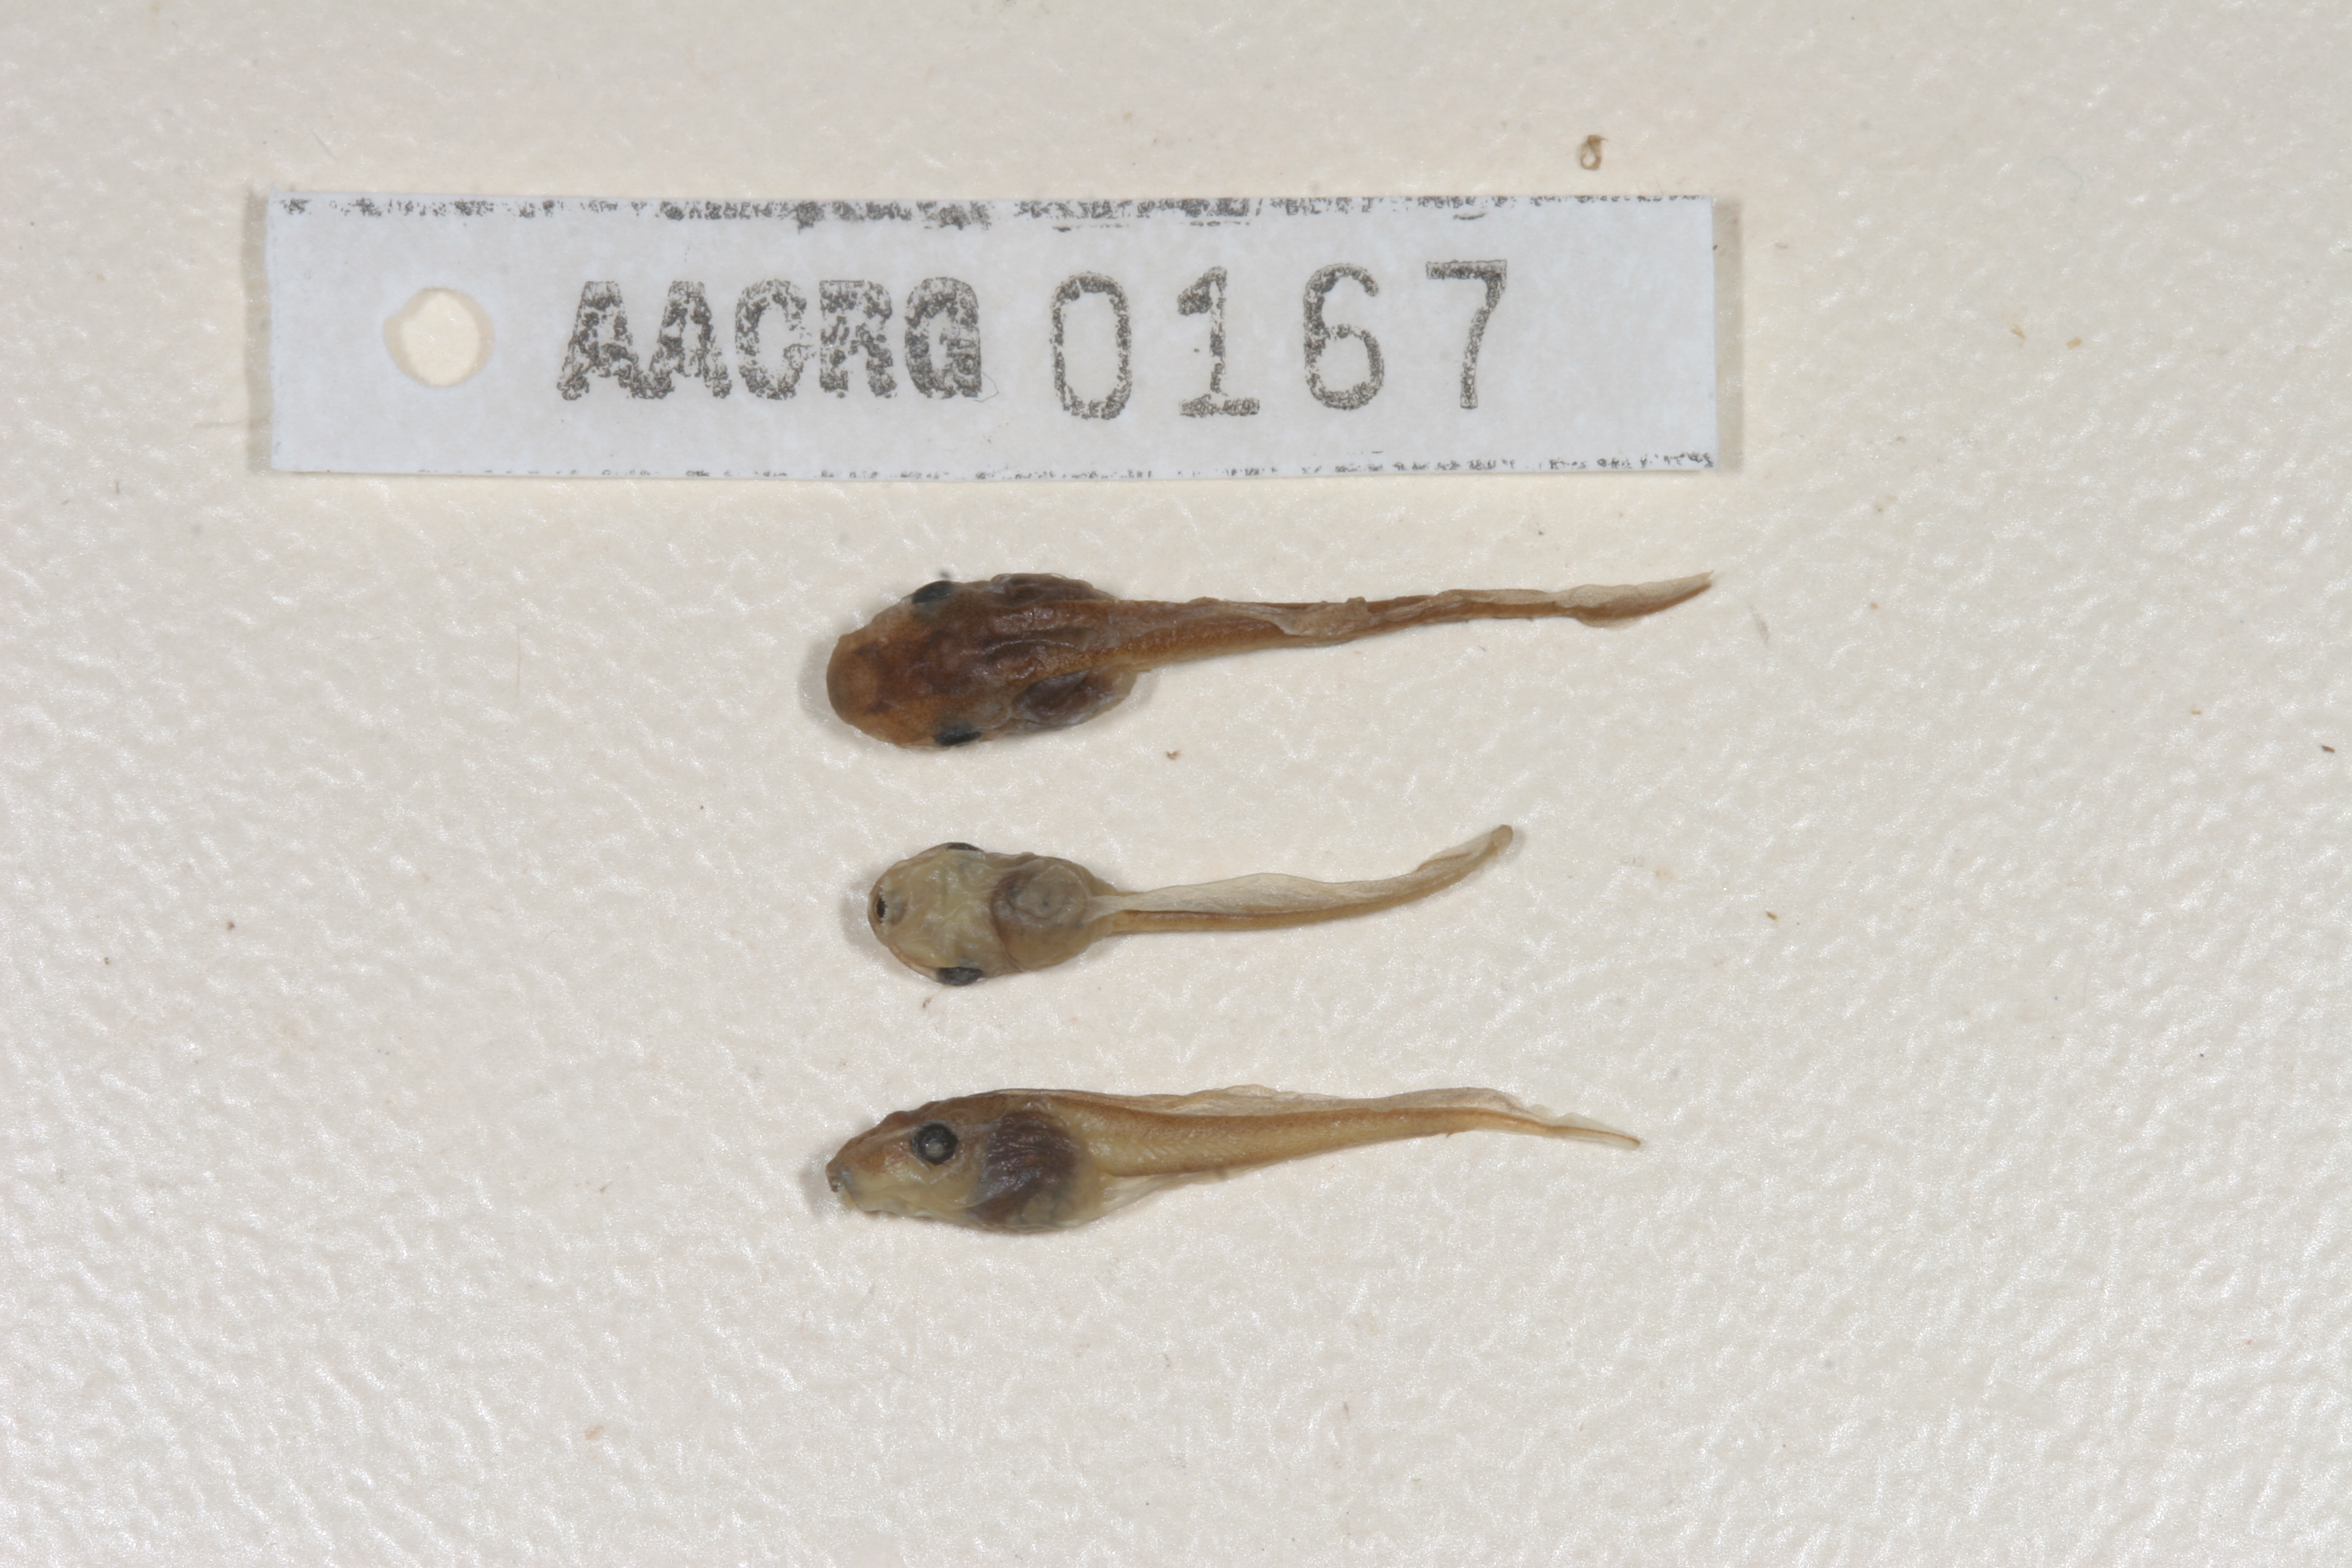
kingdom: Animalia
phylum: Chordata
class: Amphibia
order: Anura
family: Hyperoliidae
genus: Semnodactylus
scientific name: Semnodactylus wealii
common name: Weal's frog
